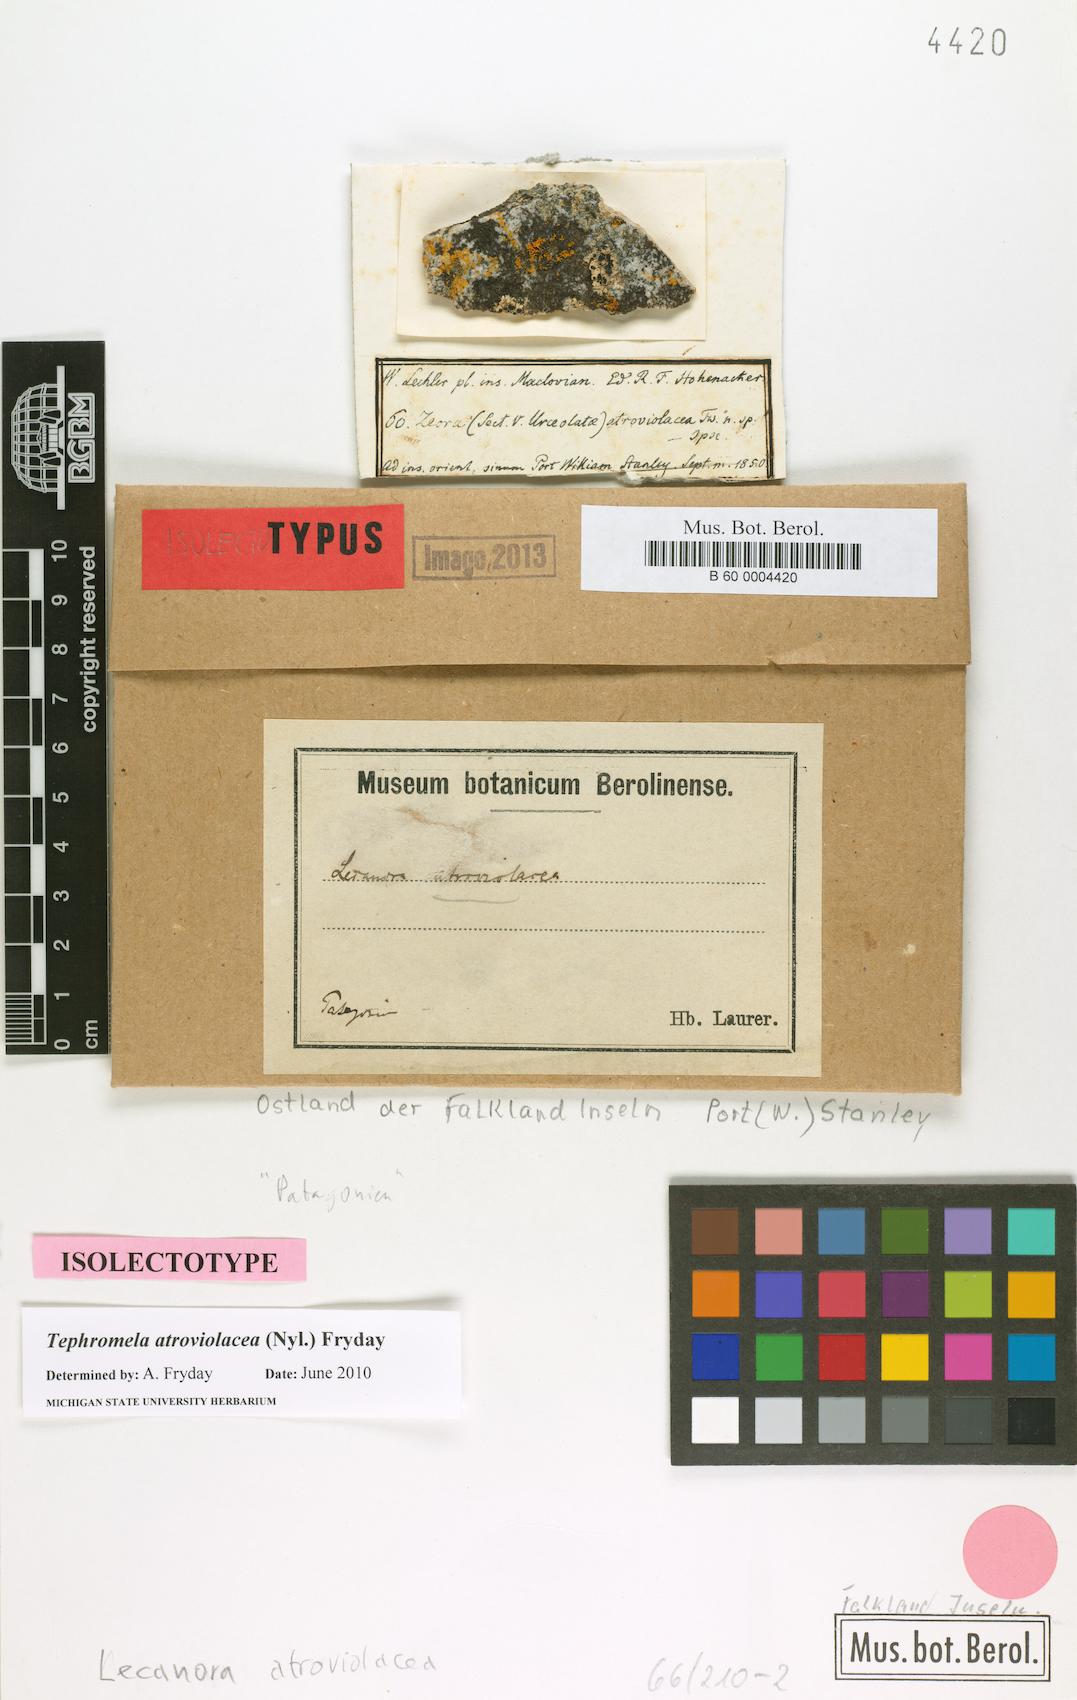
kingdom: Fungi
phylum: Ascomycota
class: Lecanoromycetes
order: Lecanorales
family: Tephromelataceae
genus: Tephromela
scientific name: Tephromela atroviolacea
